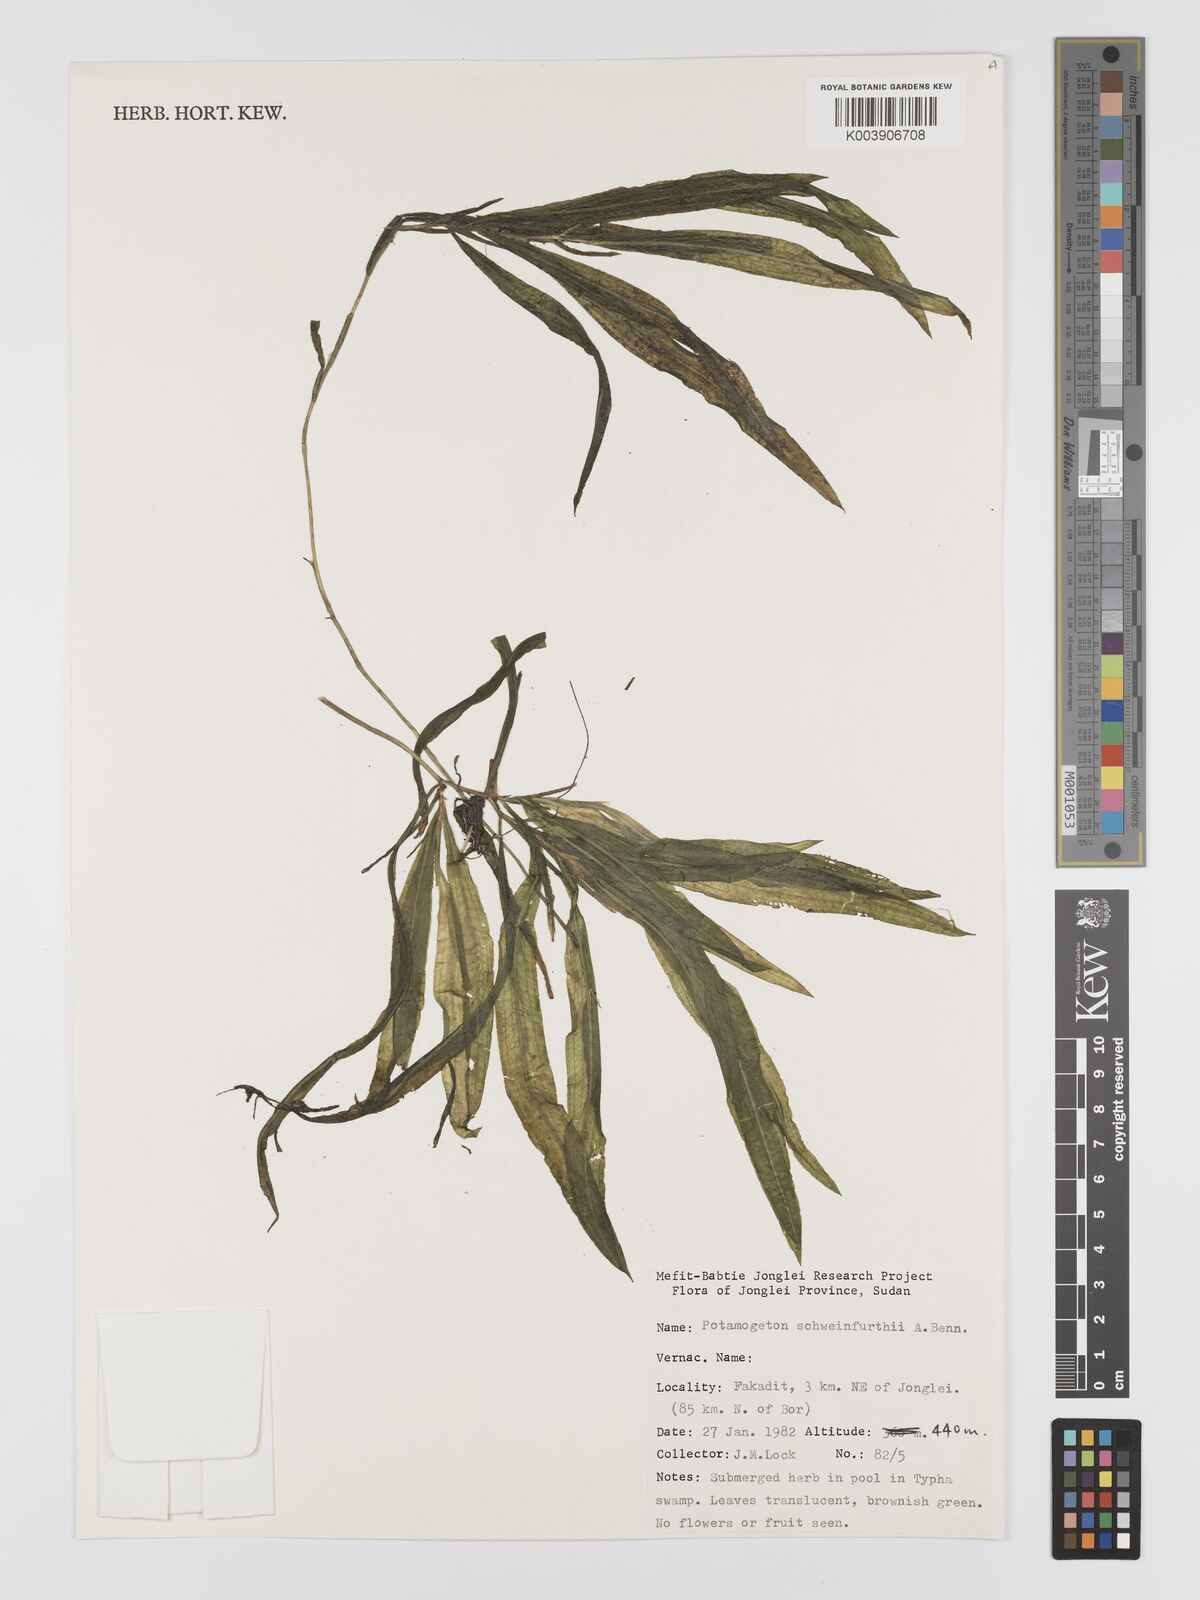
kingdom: Plantae
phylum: Tracheophyta
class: Liliopsida
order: Alismatales
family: Potamogetonaceae
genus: Potamogeton
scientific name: Potamogeton schweinfurthii
